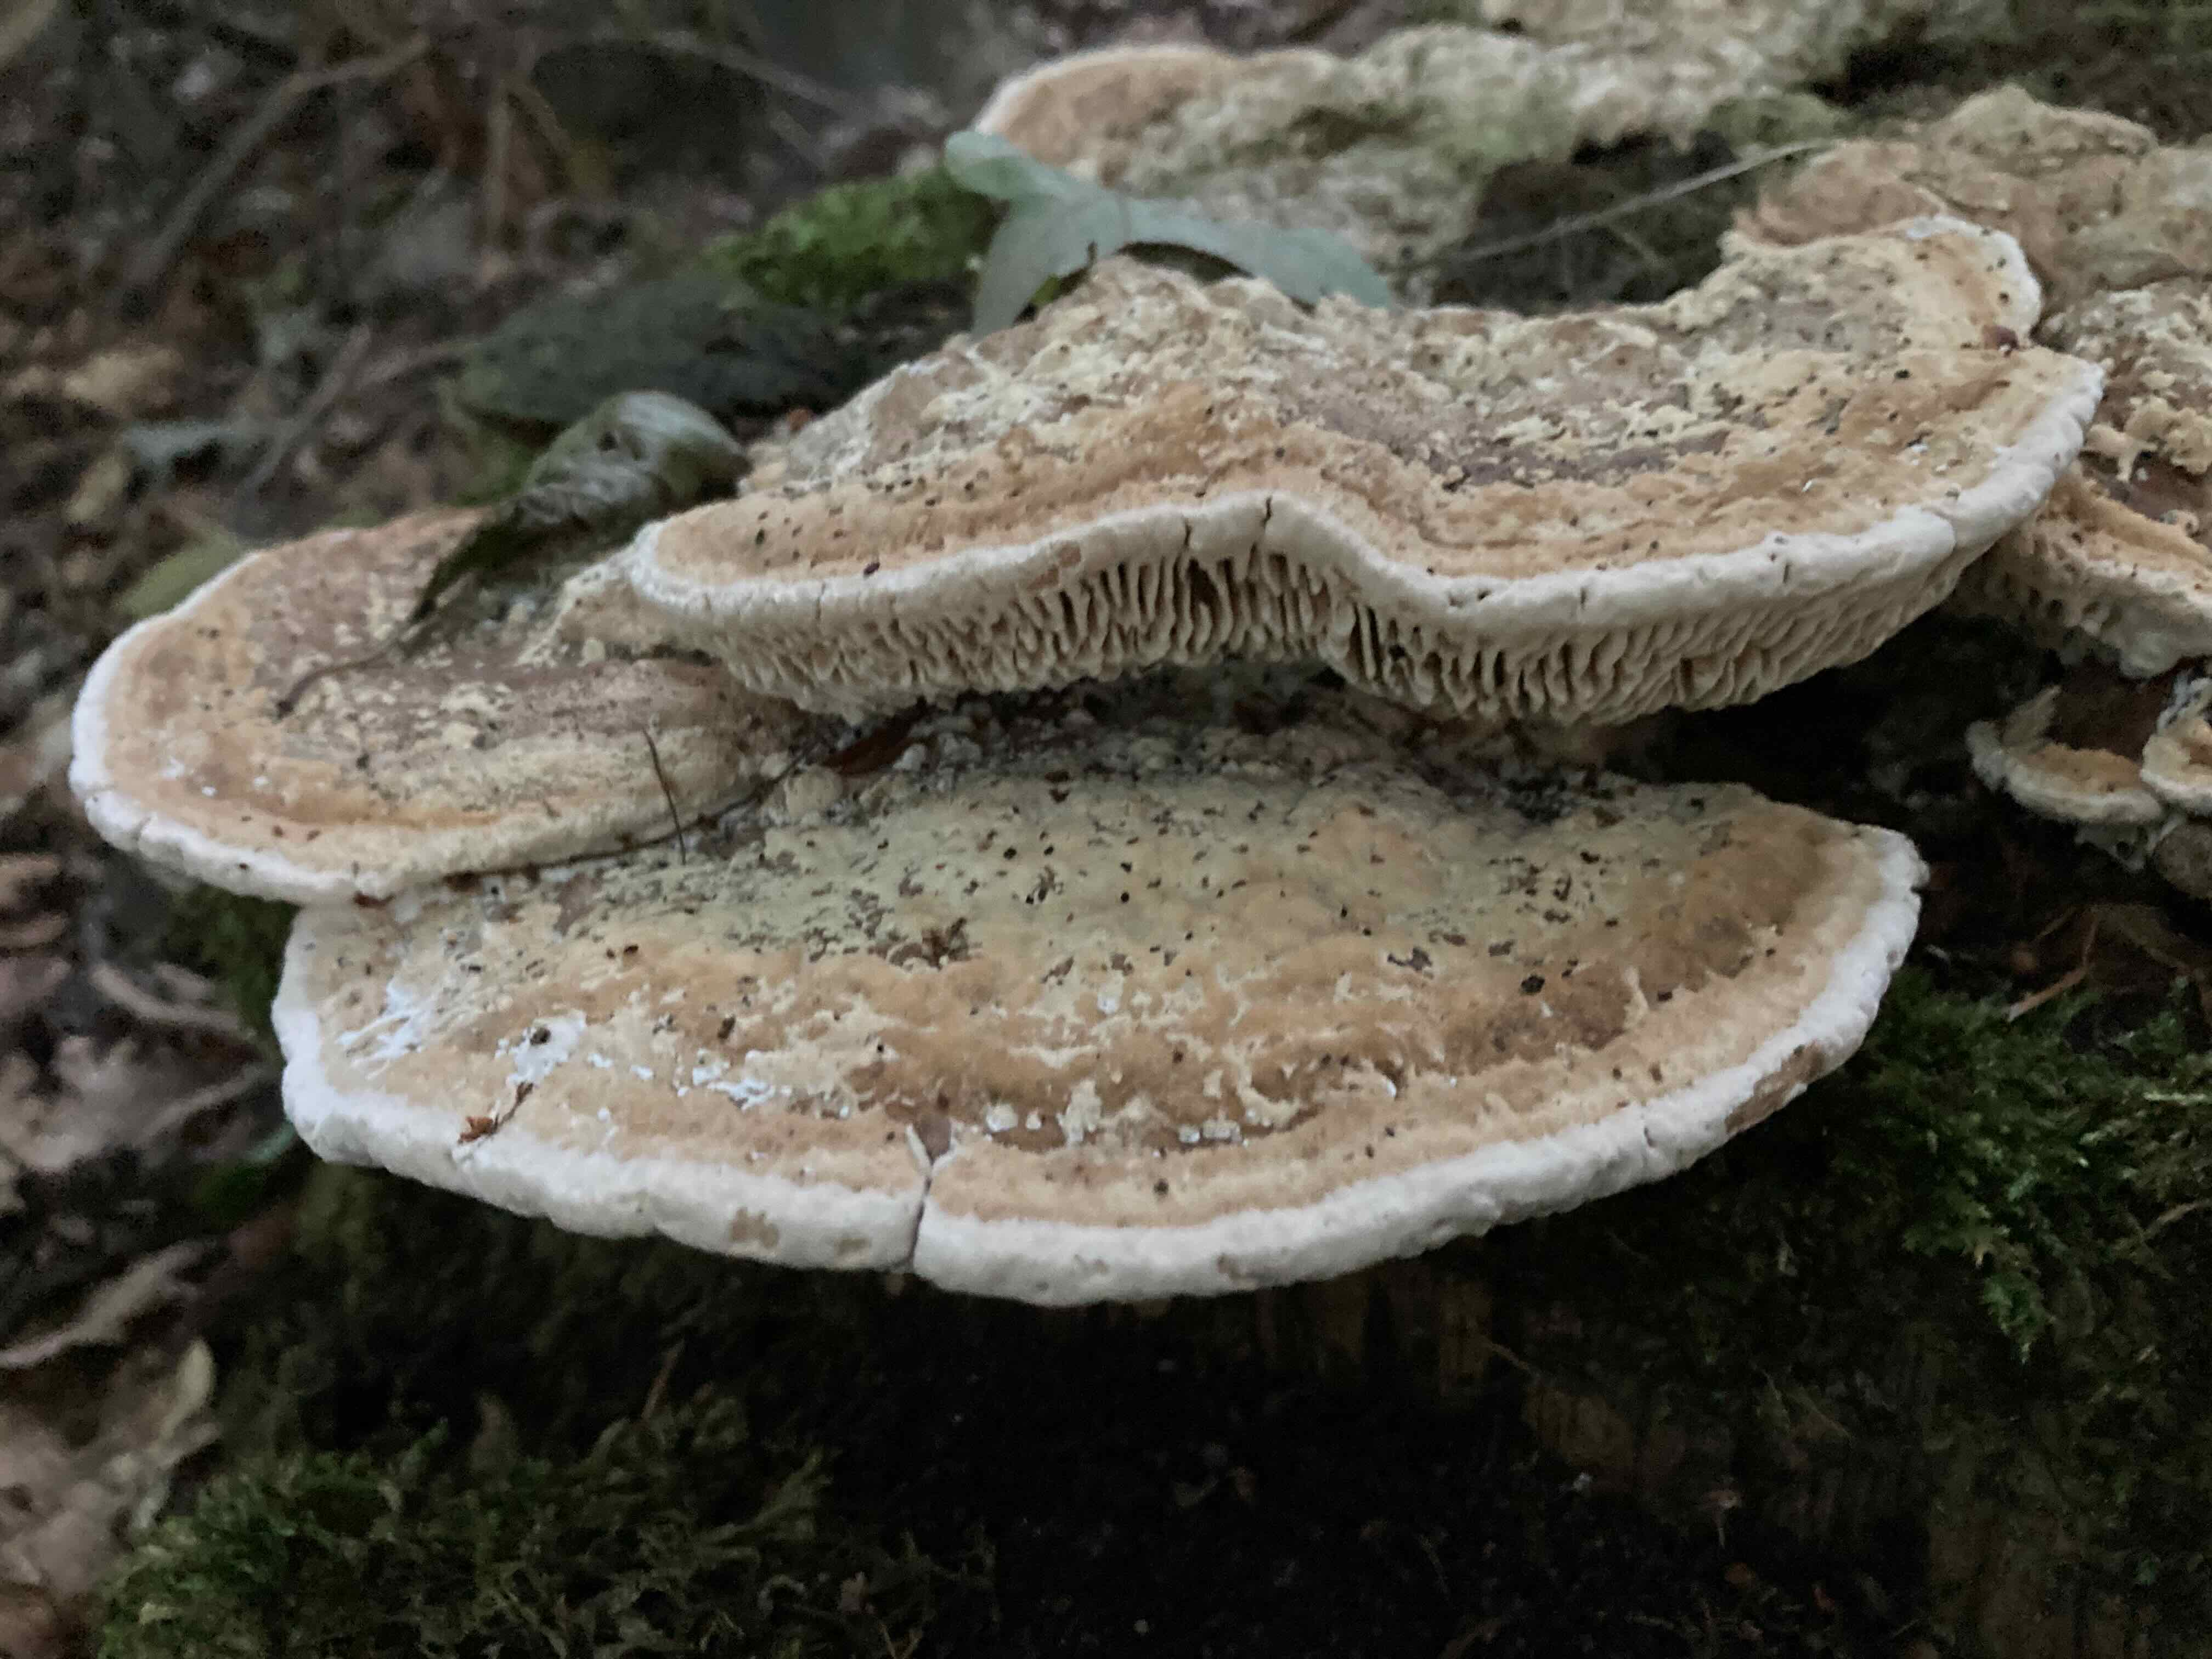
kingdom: Fungi
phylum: Basidiomycota
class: Agaricomycetes
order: Polyporales
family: Fomitopsidaceae
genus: Daedalea
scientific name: Daedalea quercina
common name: ege-labyrintsvamp
